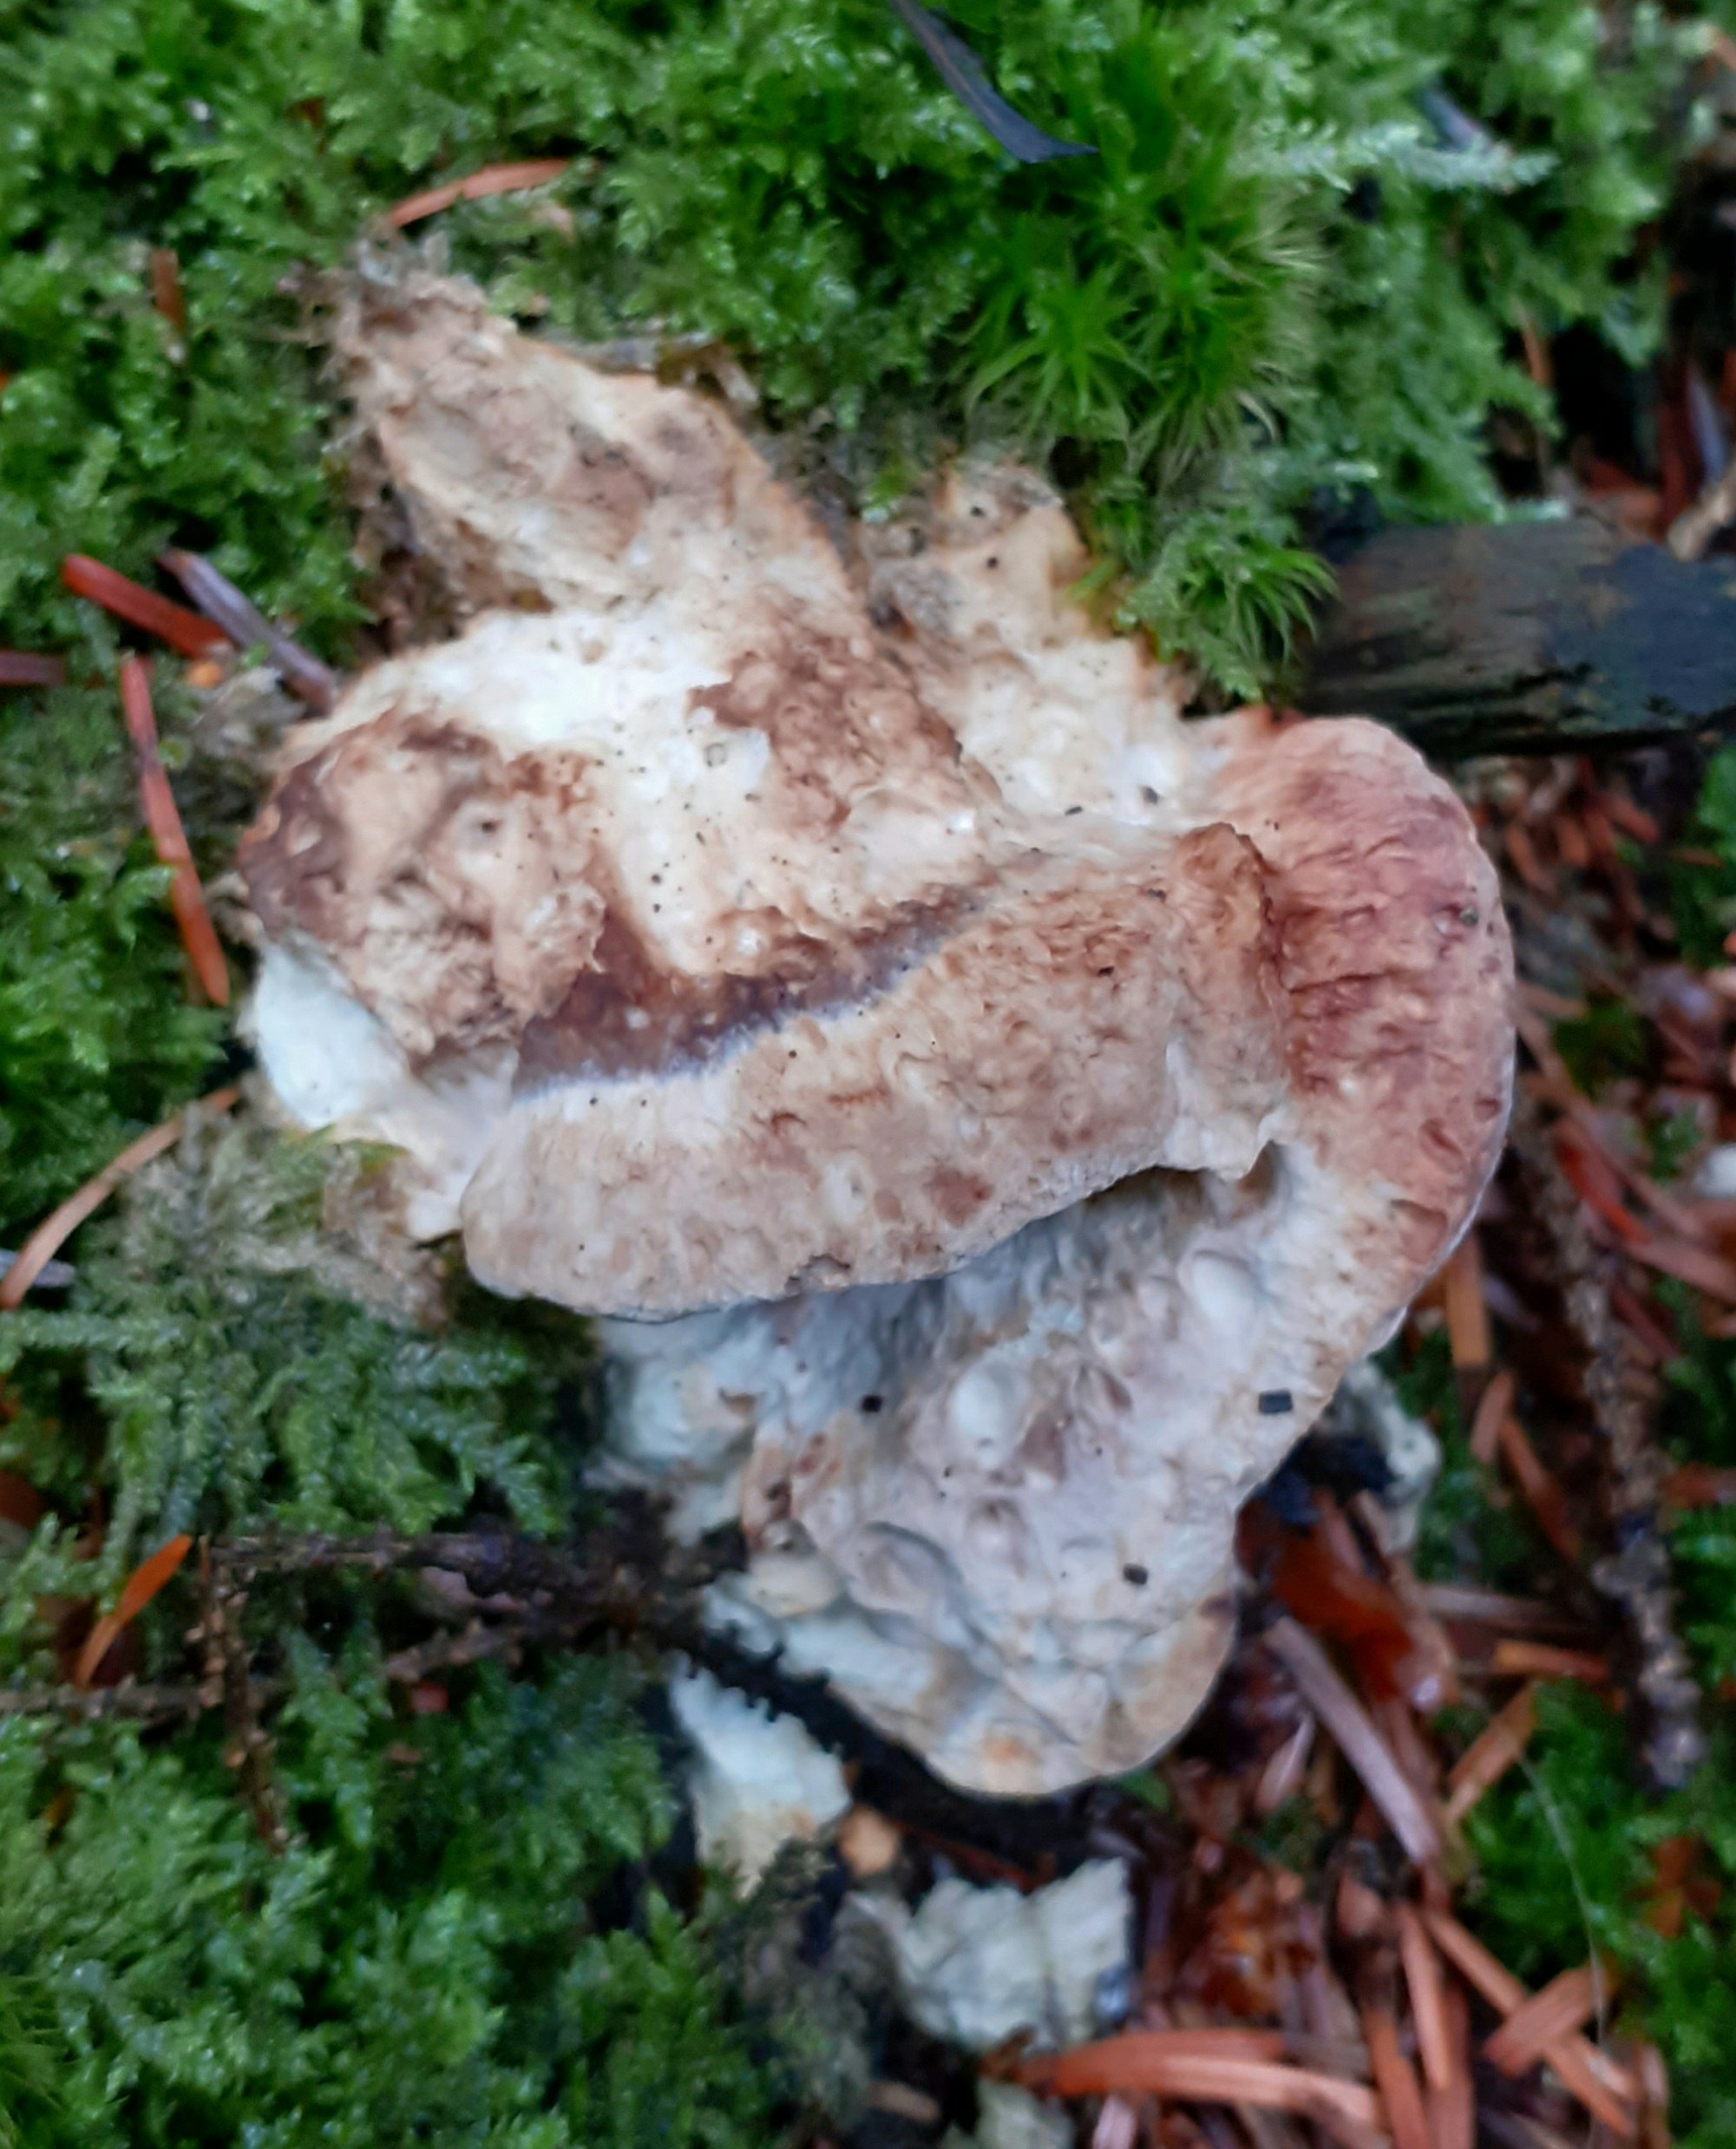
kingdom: Fungi
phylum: Basidiomycota
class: Agaricomycetes
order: Polyporales
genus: Calcipostia
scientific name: Calcipostia guttulata
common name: dråbe-kødporesvamp
